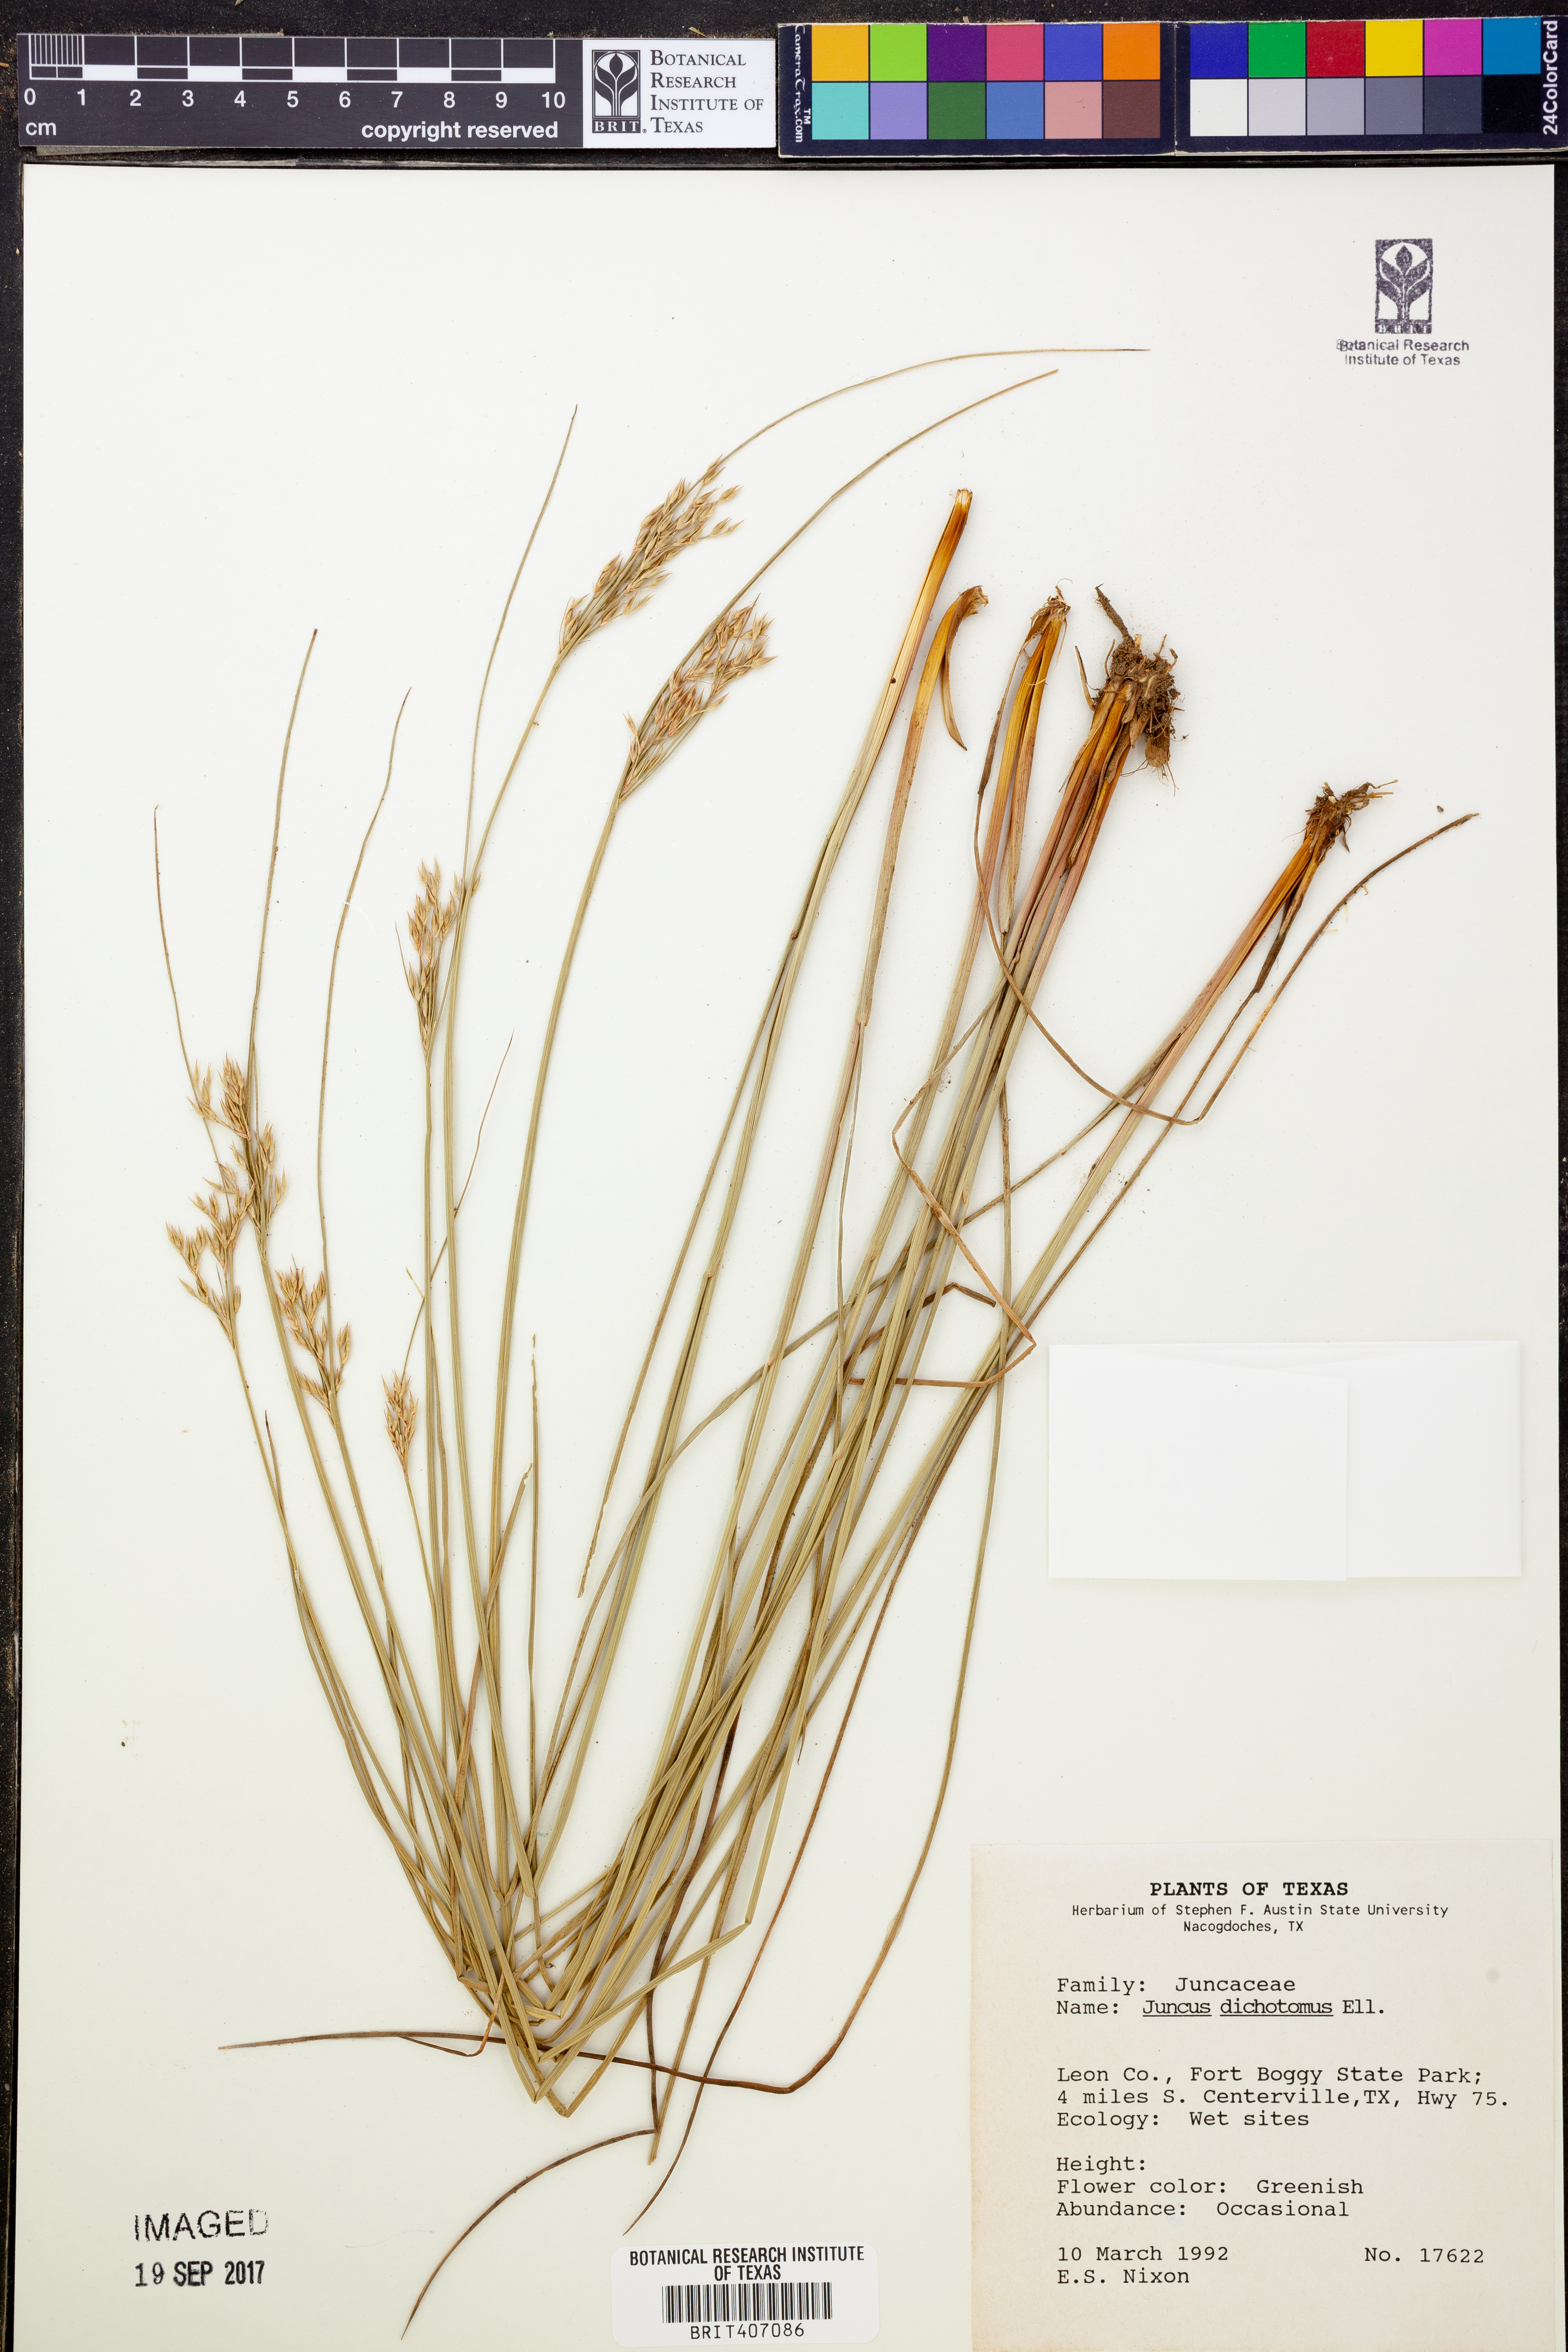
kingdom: Plantae
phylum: Tracheophyta
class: Liliopsida
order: Poales
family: Juncaceae
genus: Juncus
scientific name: Juncus dichotomus
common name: Forked rush
